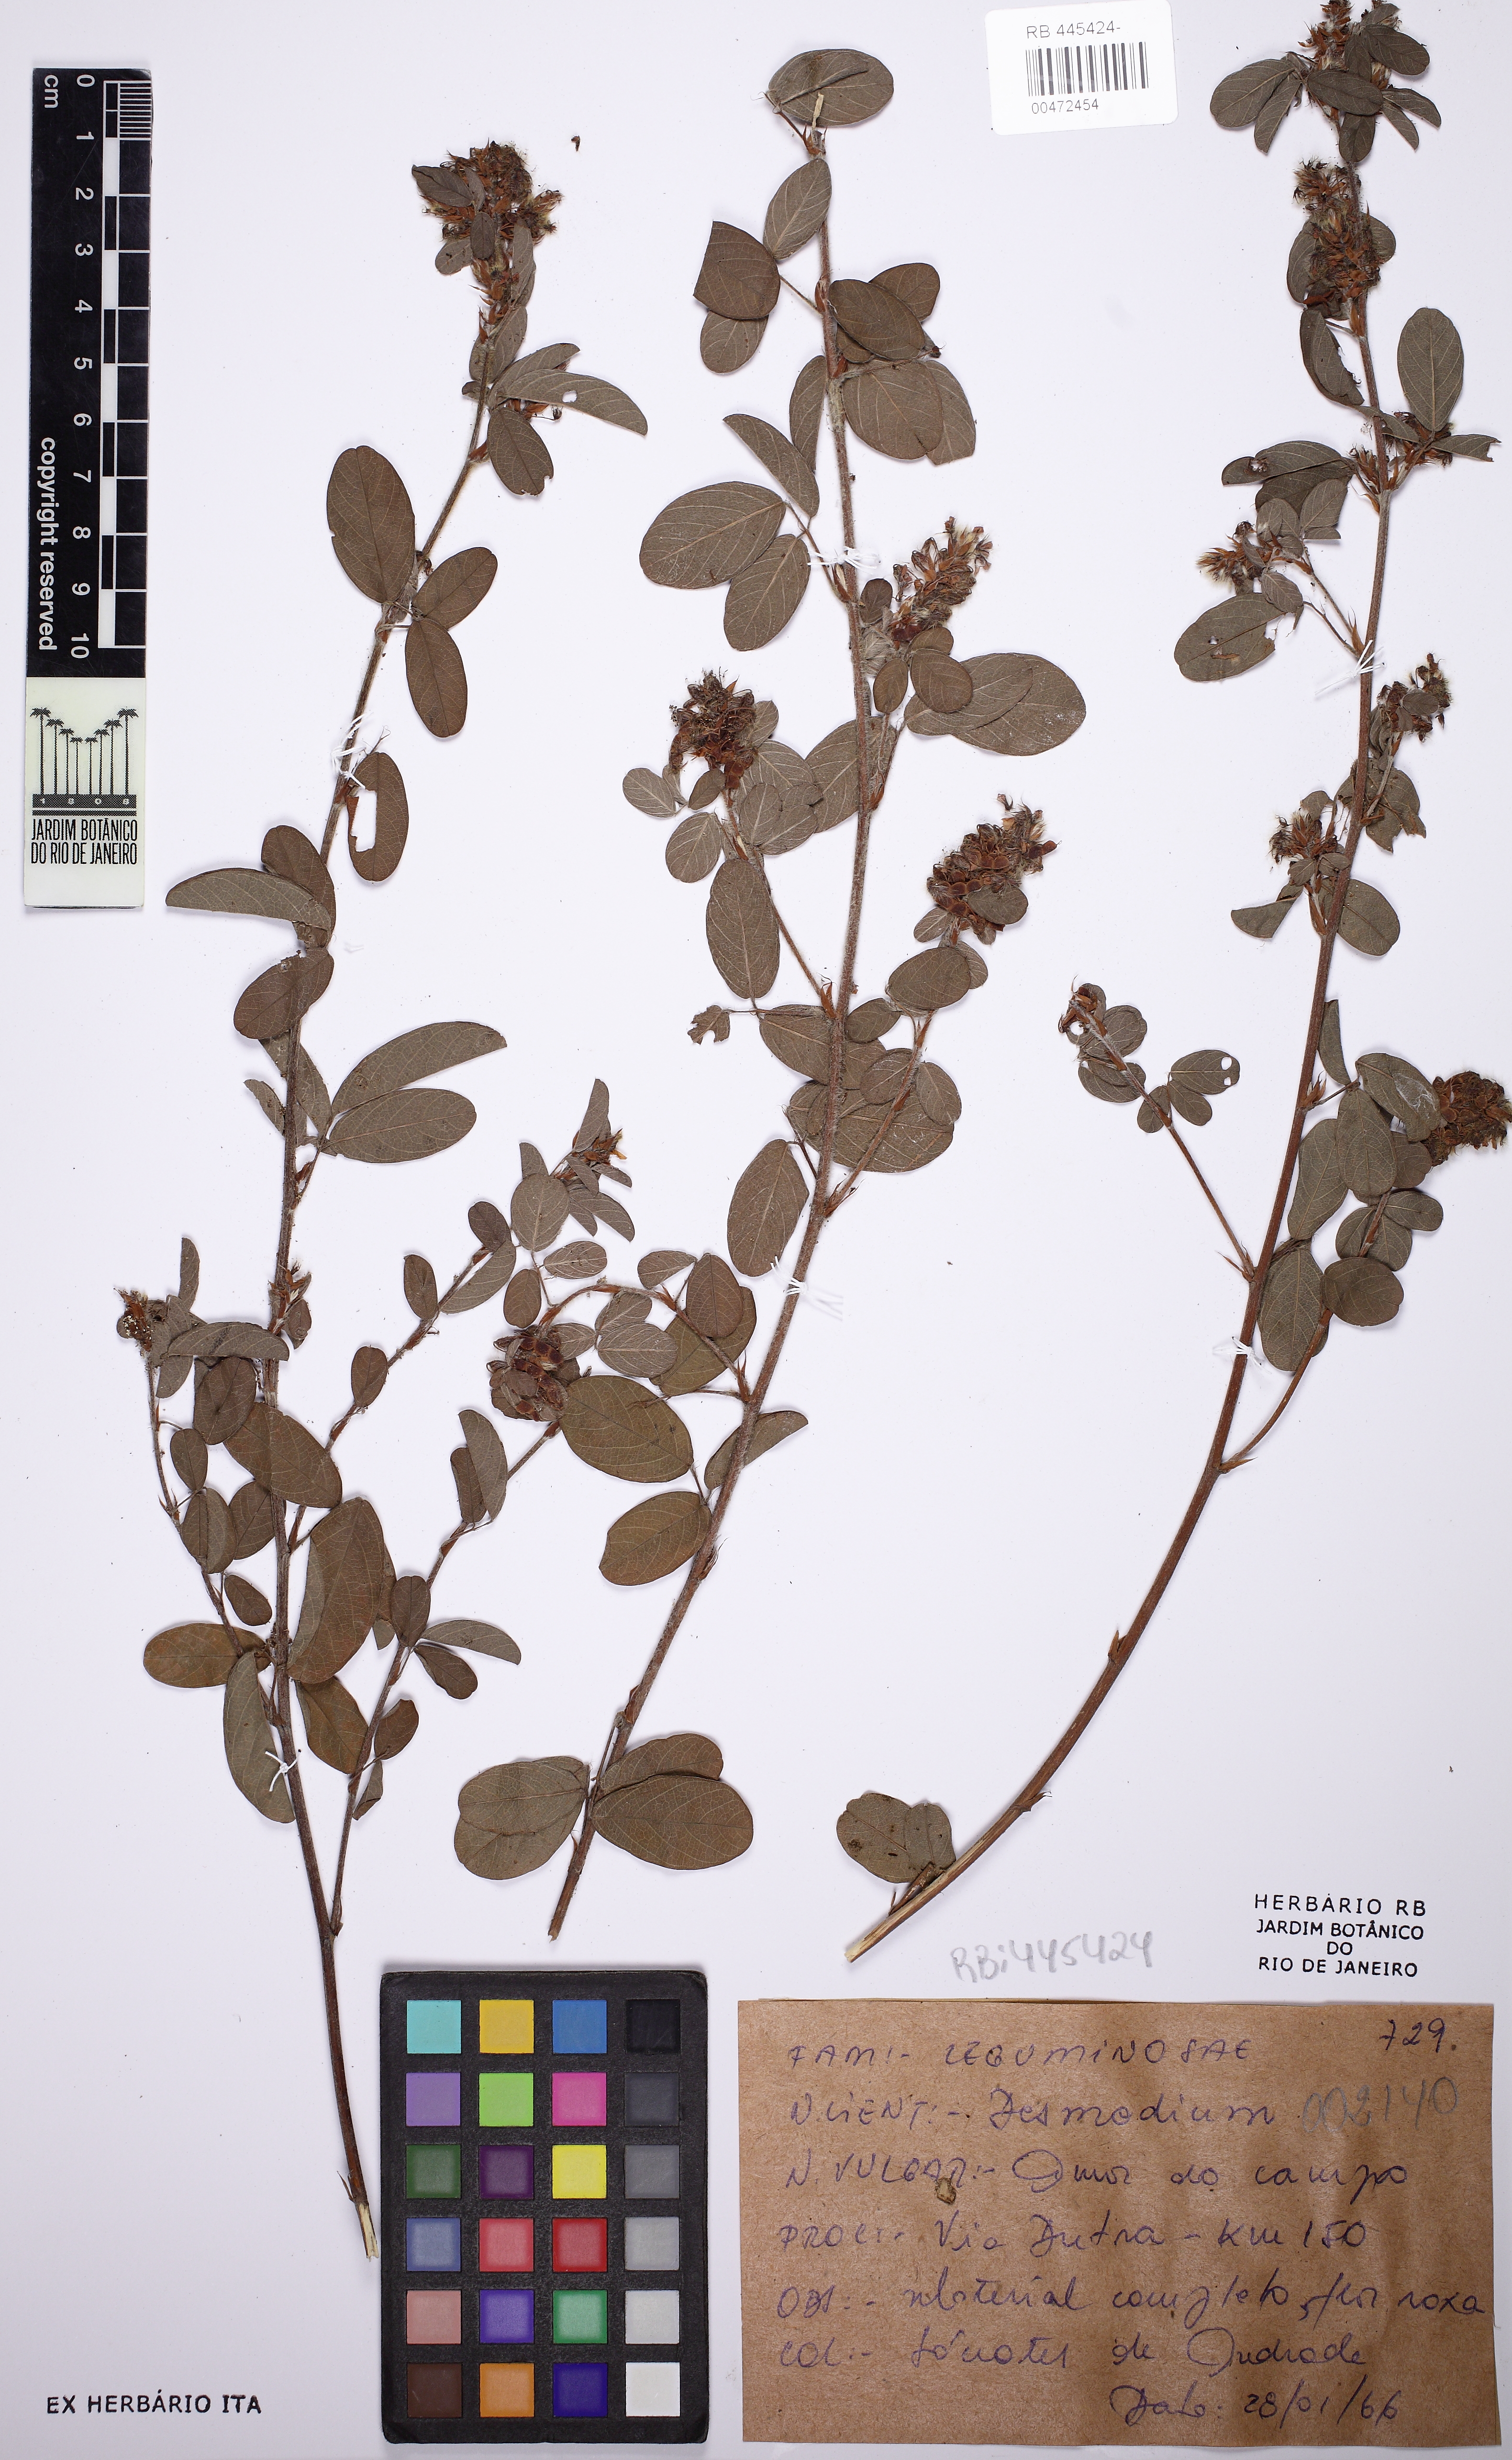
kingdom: Plantae
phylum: Tracheophyta
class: Magnoliopsida
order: Fabales
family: Fabaceae
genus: Grona
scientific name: Grona barbata
